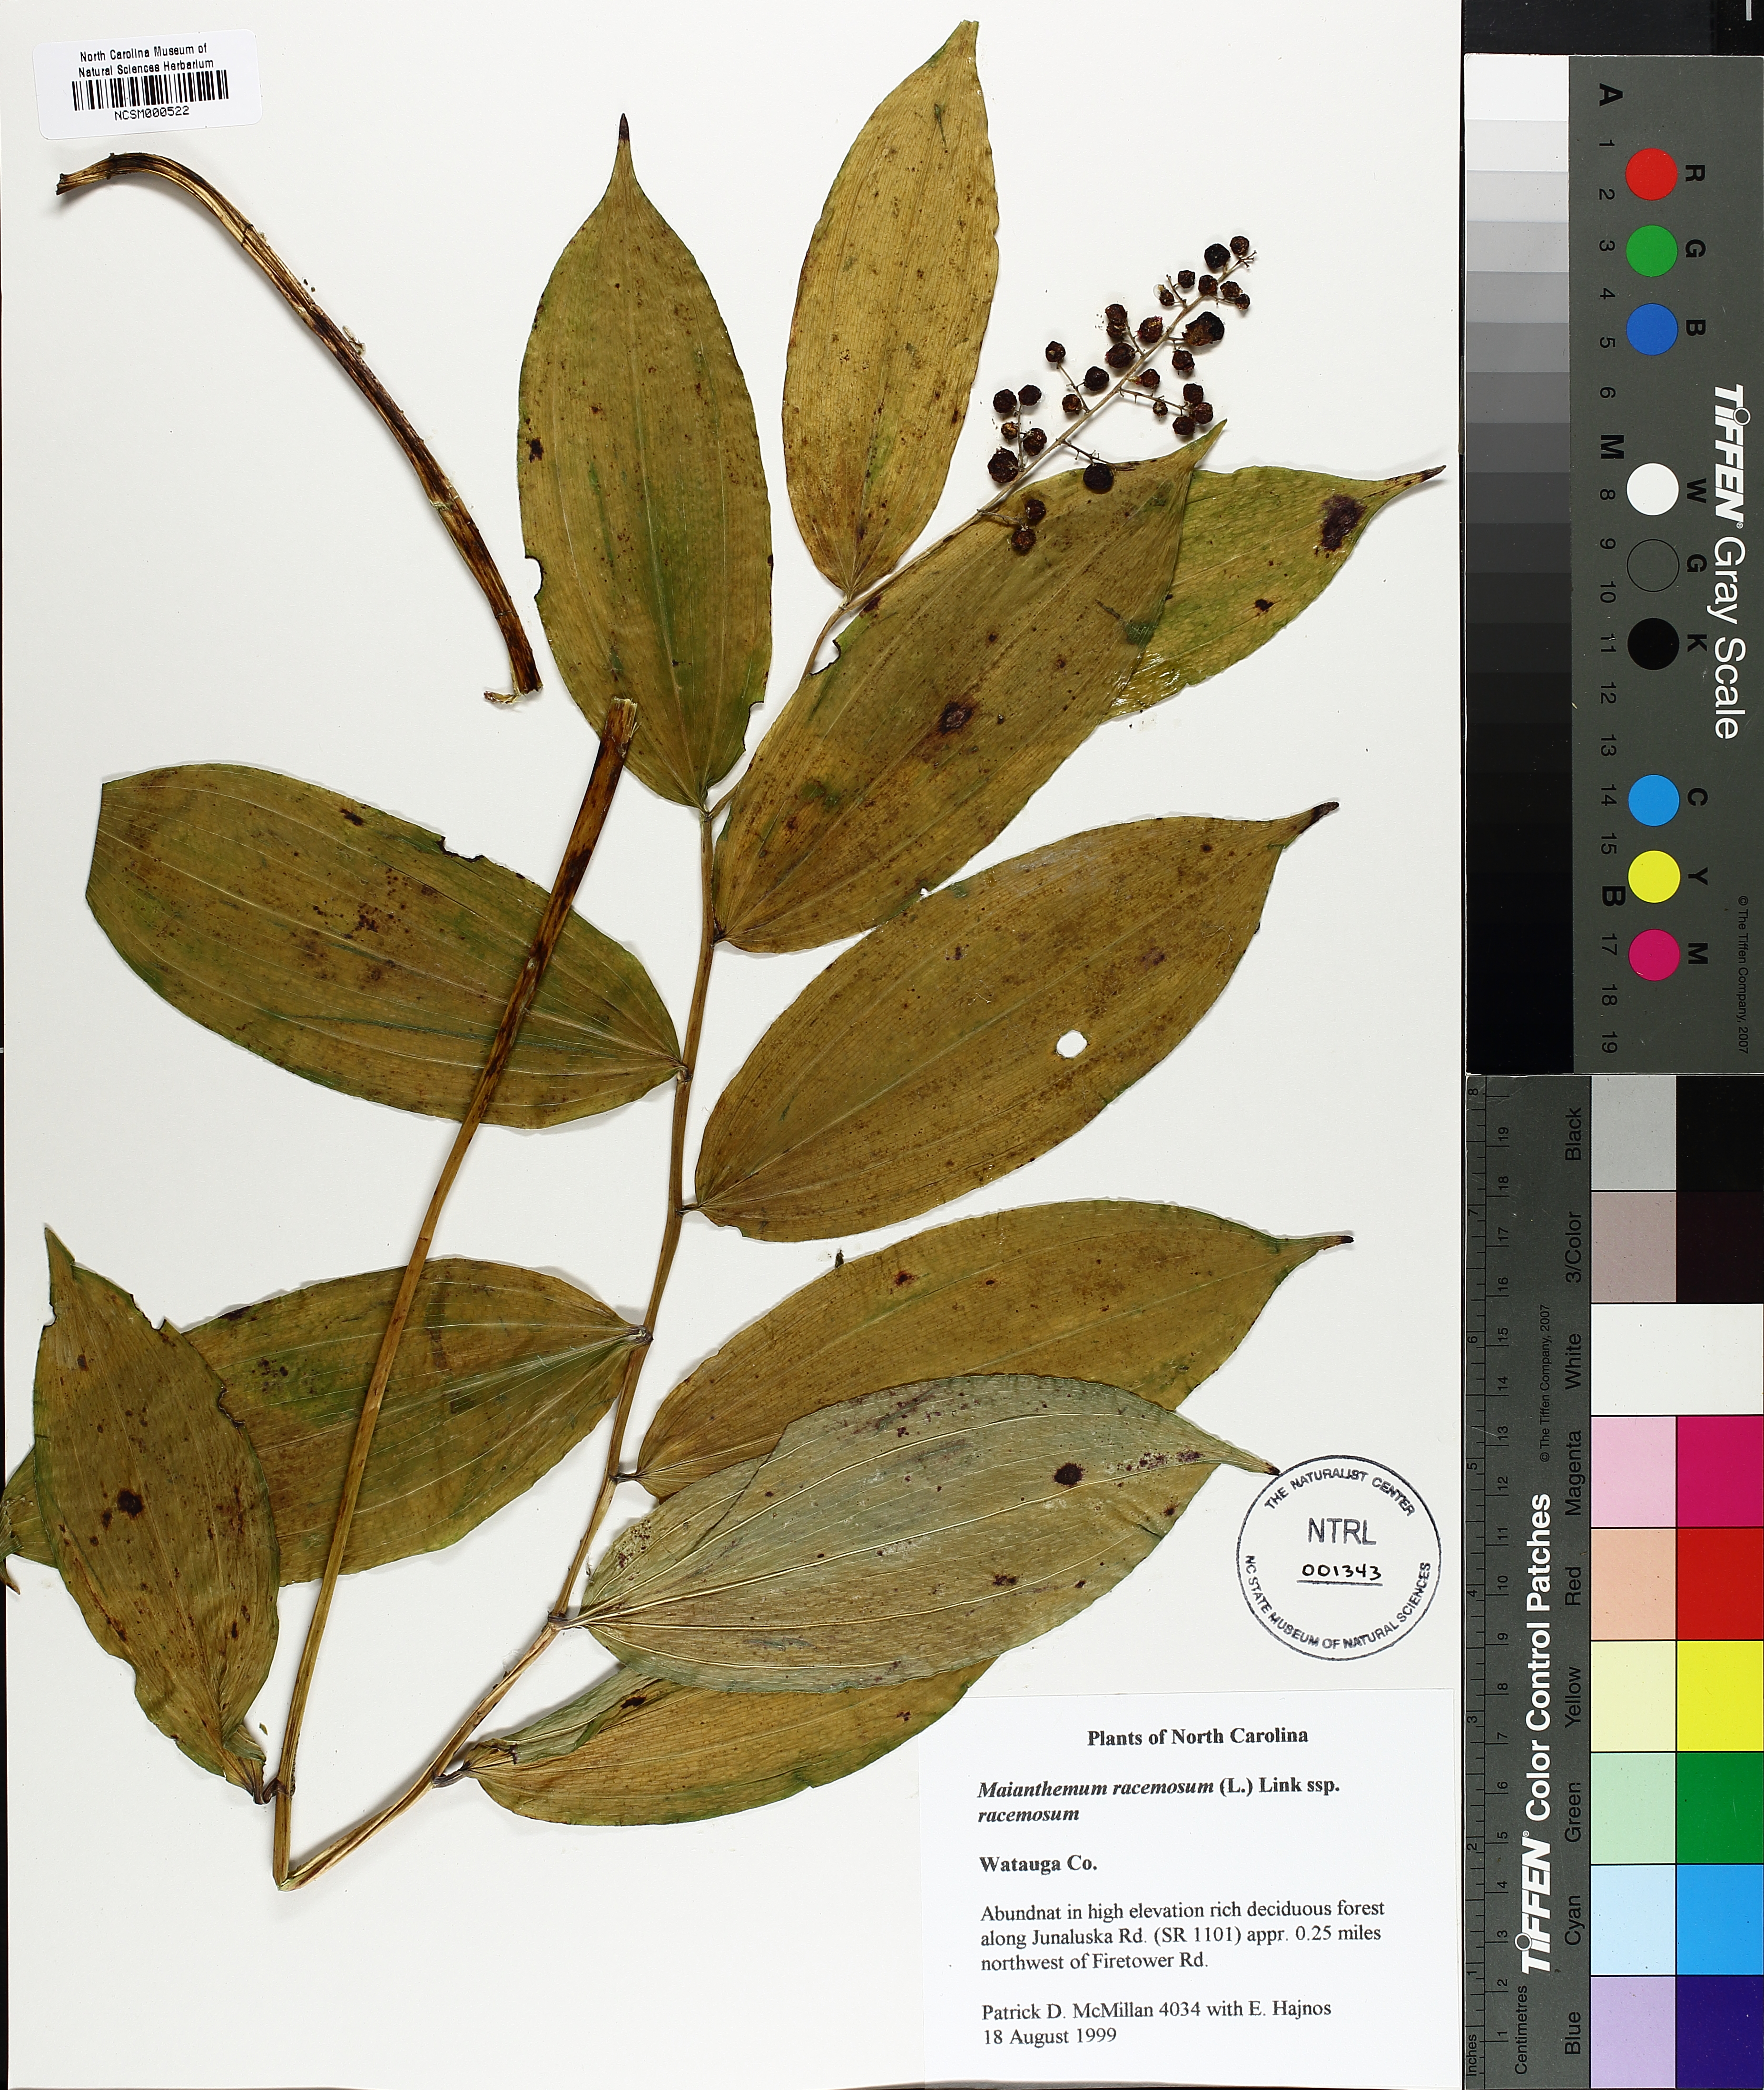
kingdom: Plantae
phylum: Tracheophyta
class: Liliopsida
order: Asparagales
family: Asparagaceae
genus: Maianthemum
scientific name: Maianthemum racemosum
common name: False spikenard
